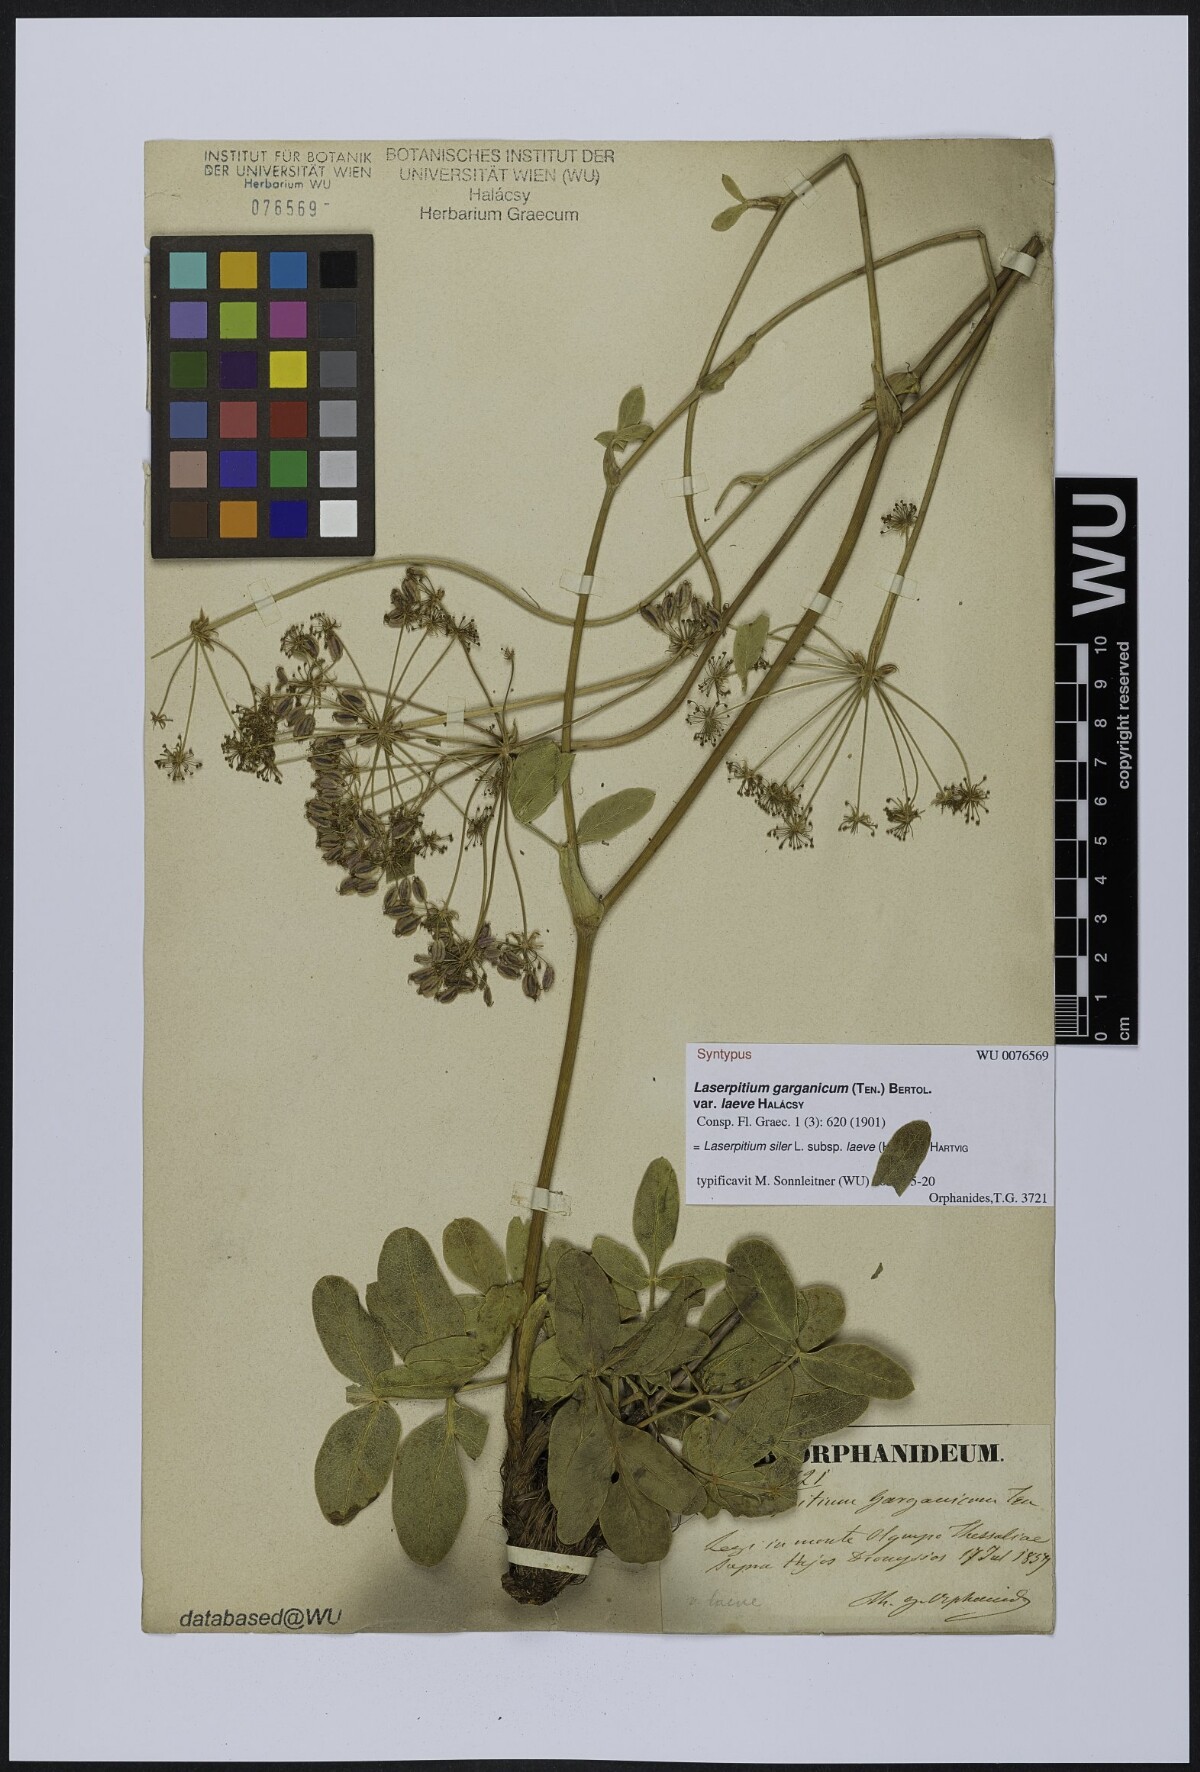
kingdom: Plantae
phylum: Tracheophyta
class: Magnoliopsida
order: Apiales
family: Apiaceae
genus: Siler
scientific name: Siler zernyi
